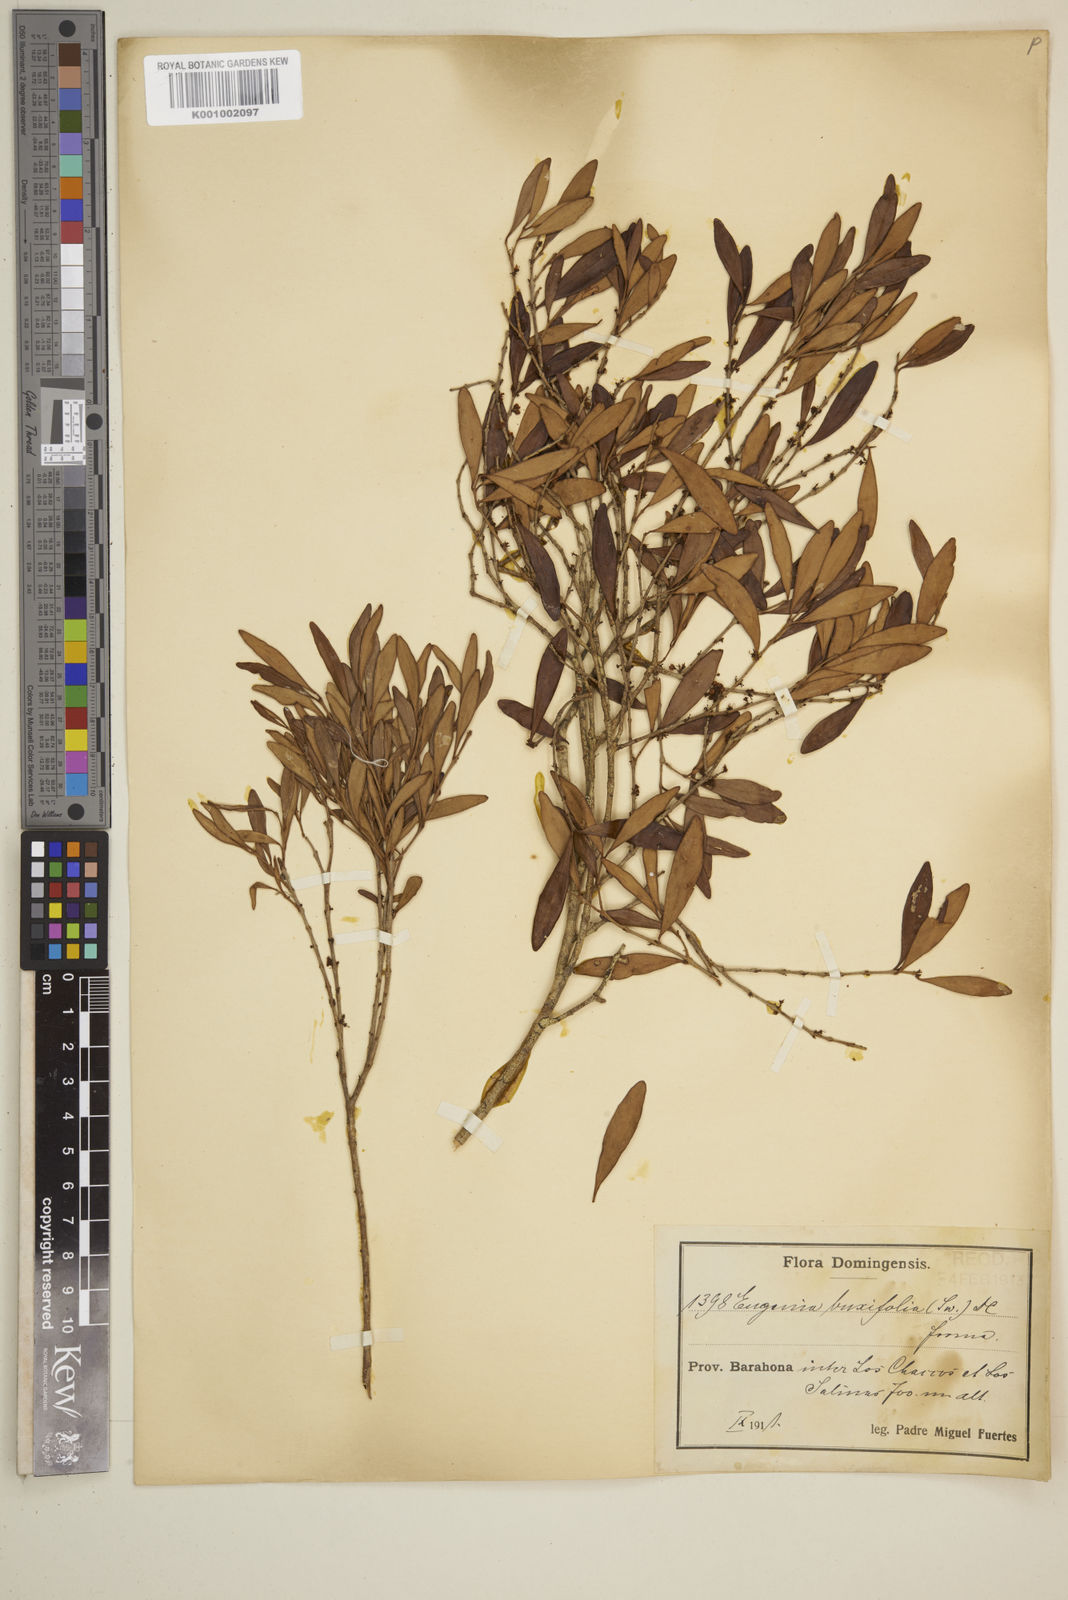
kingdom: Plantae
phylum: Tracheophyta
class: Magnoliopsida
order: Myrtales
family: Myrtaceae
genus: Eugenia
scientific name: Eugenia buxifolia
